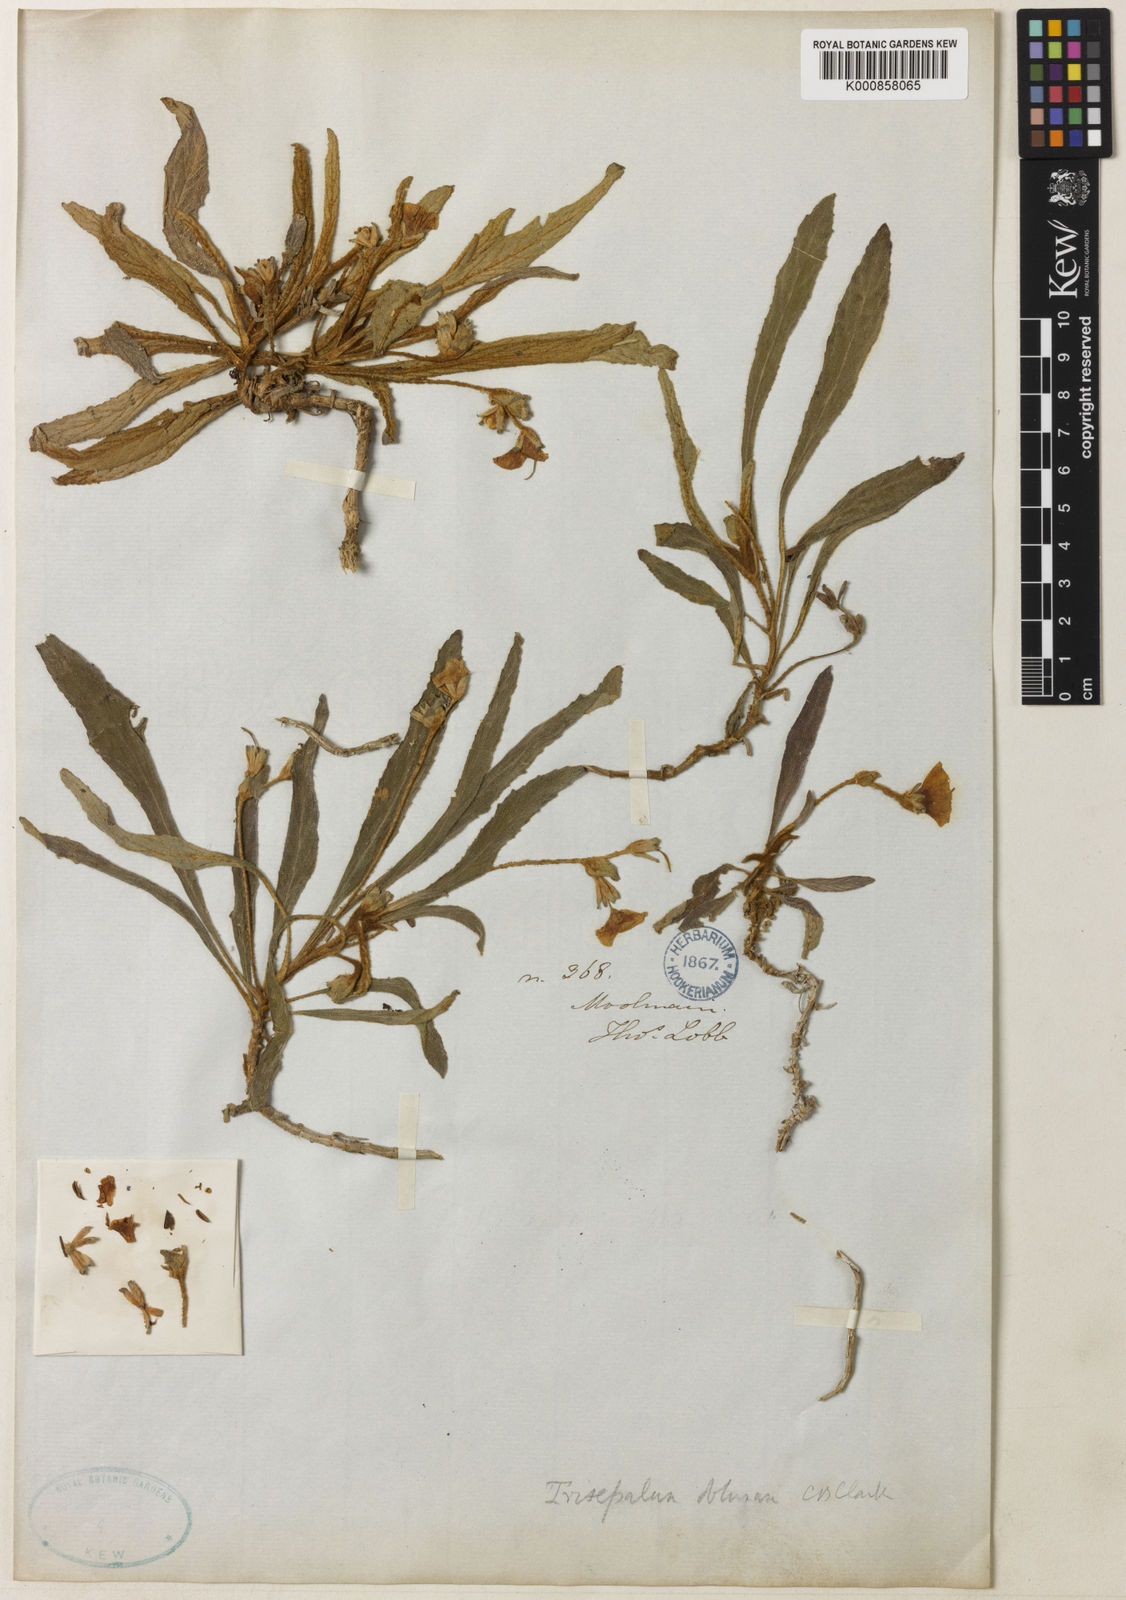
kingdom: Plantae
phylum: Tracheophyta
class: Magnoliopsida
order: Lamiales
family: Gesneriaceae
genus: Paraboea
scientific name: Paraboea obtusa
